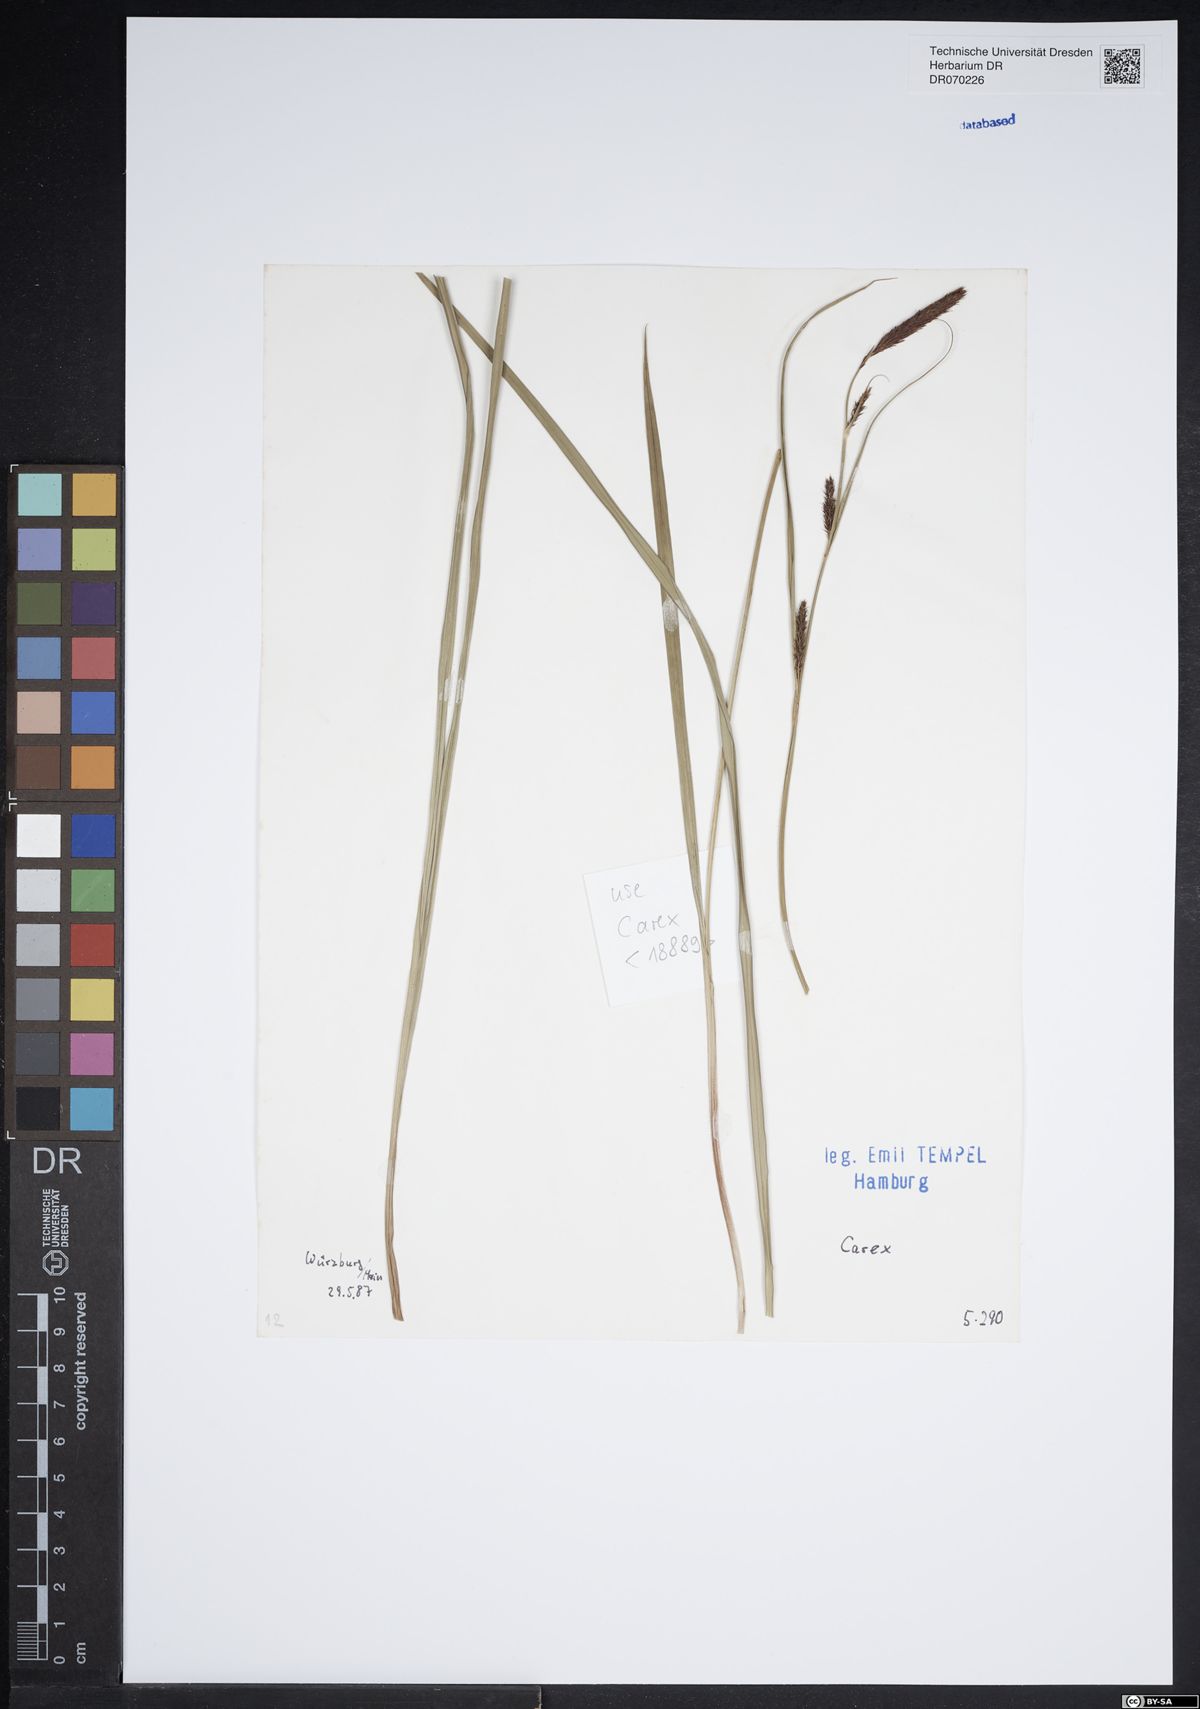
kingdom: Plantae
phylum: Tracheophyta
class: Liliopsida
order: Poales
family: Cyperaceae
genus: Carex
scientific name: Carex
